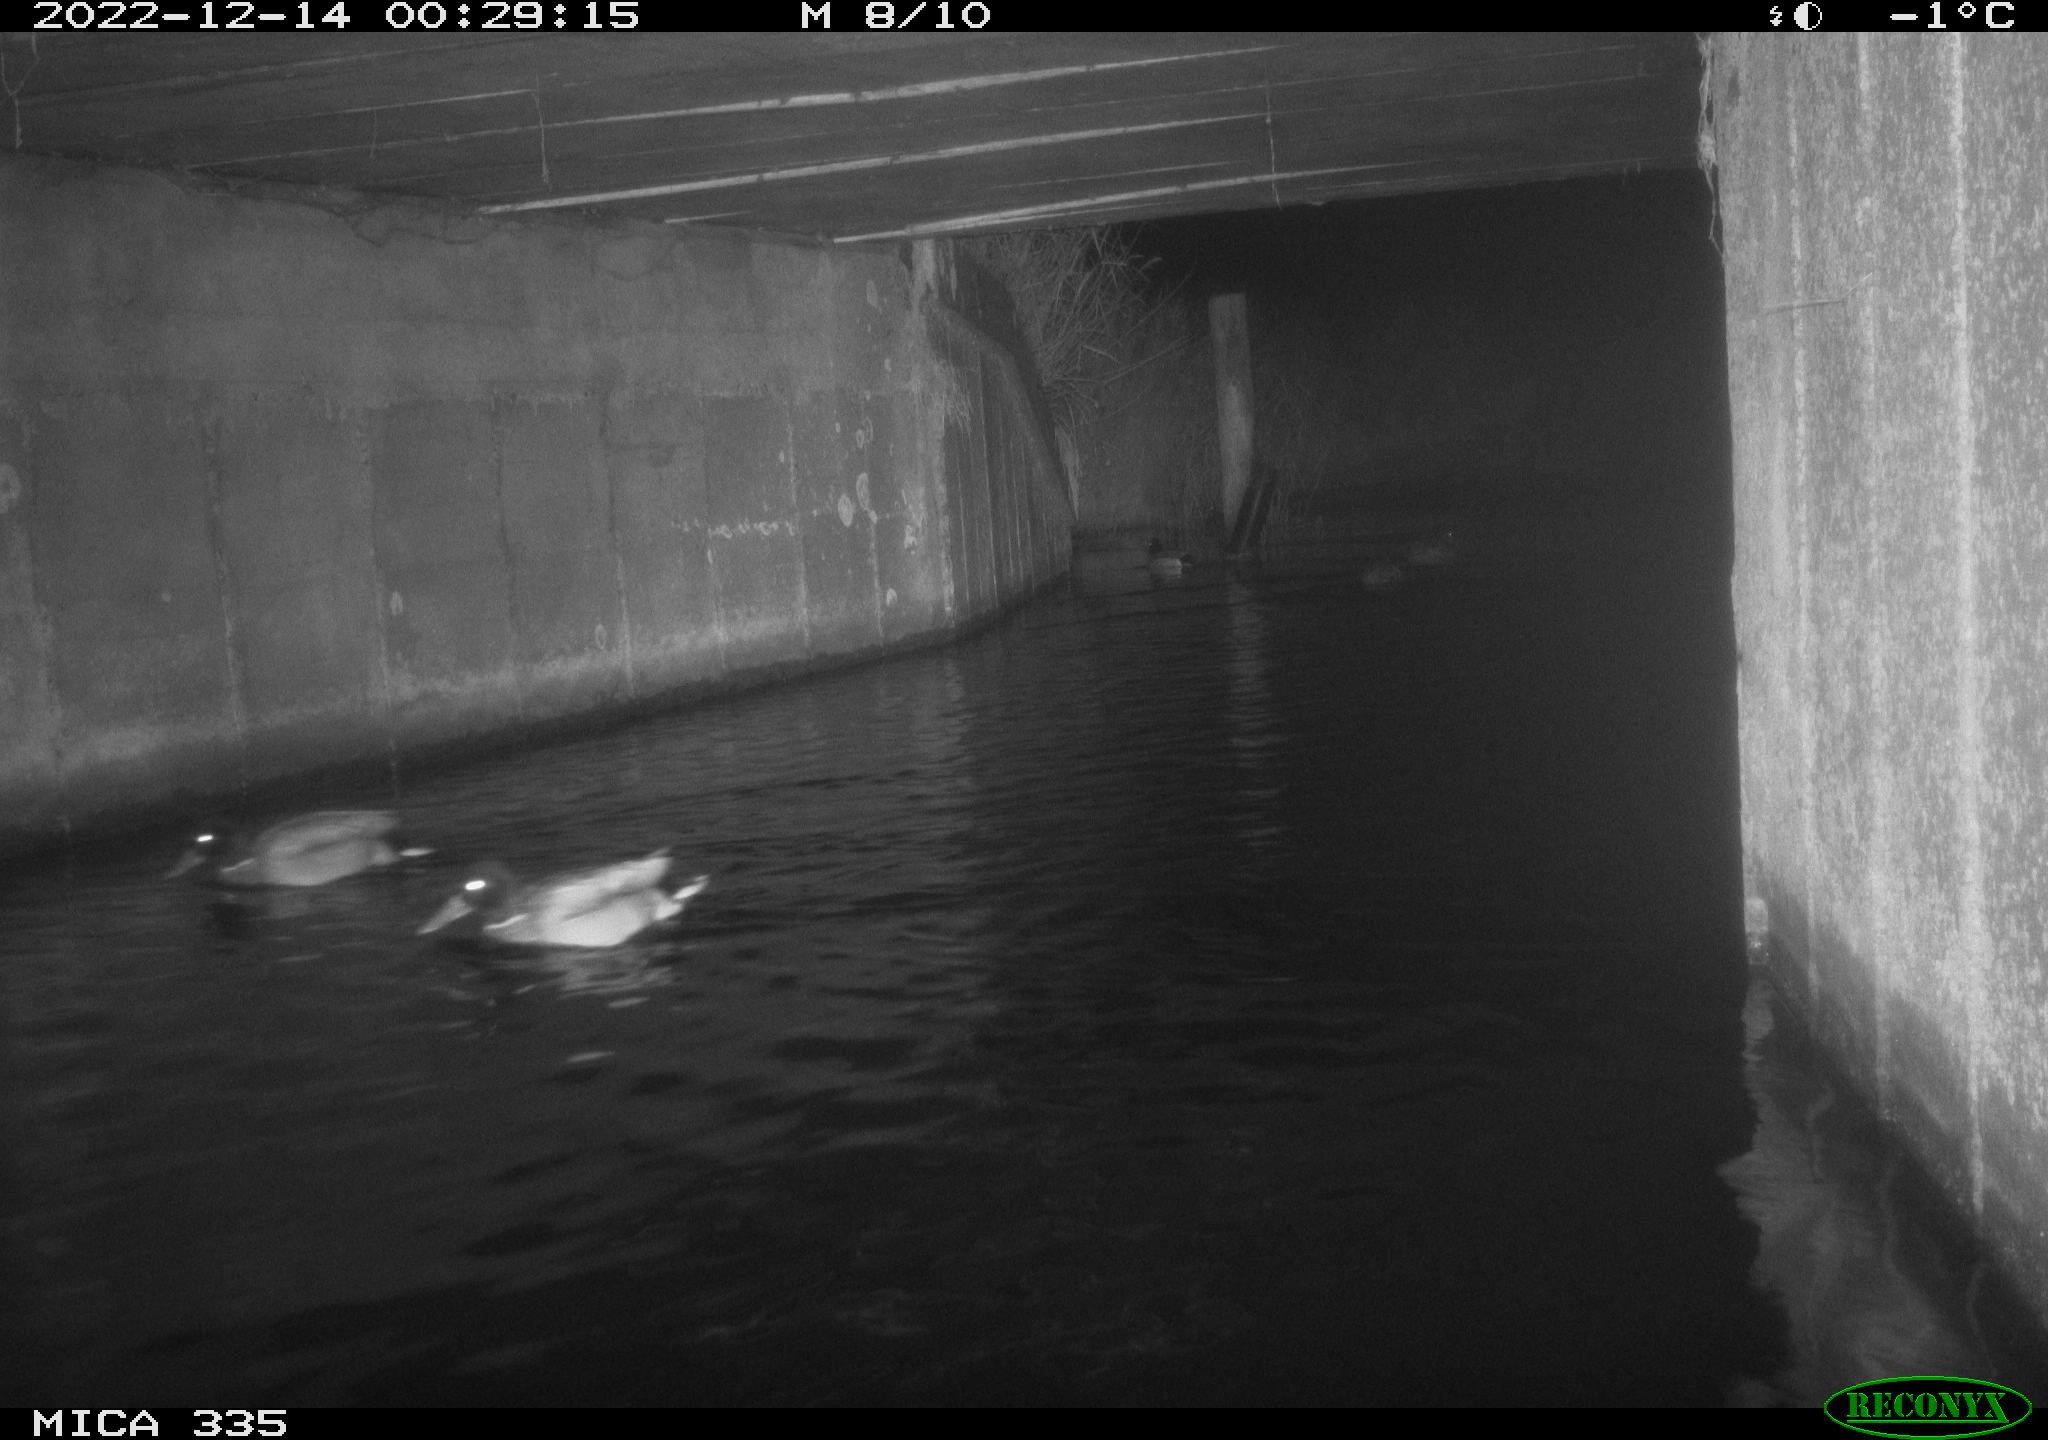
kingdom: Animalia
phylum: Chordata
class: Aves
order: Anseriformes
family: Anatidae
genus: Anas
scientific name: Anas
